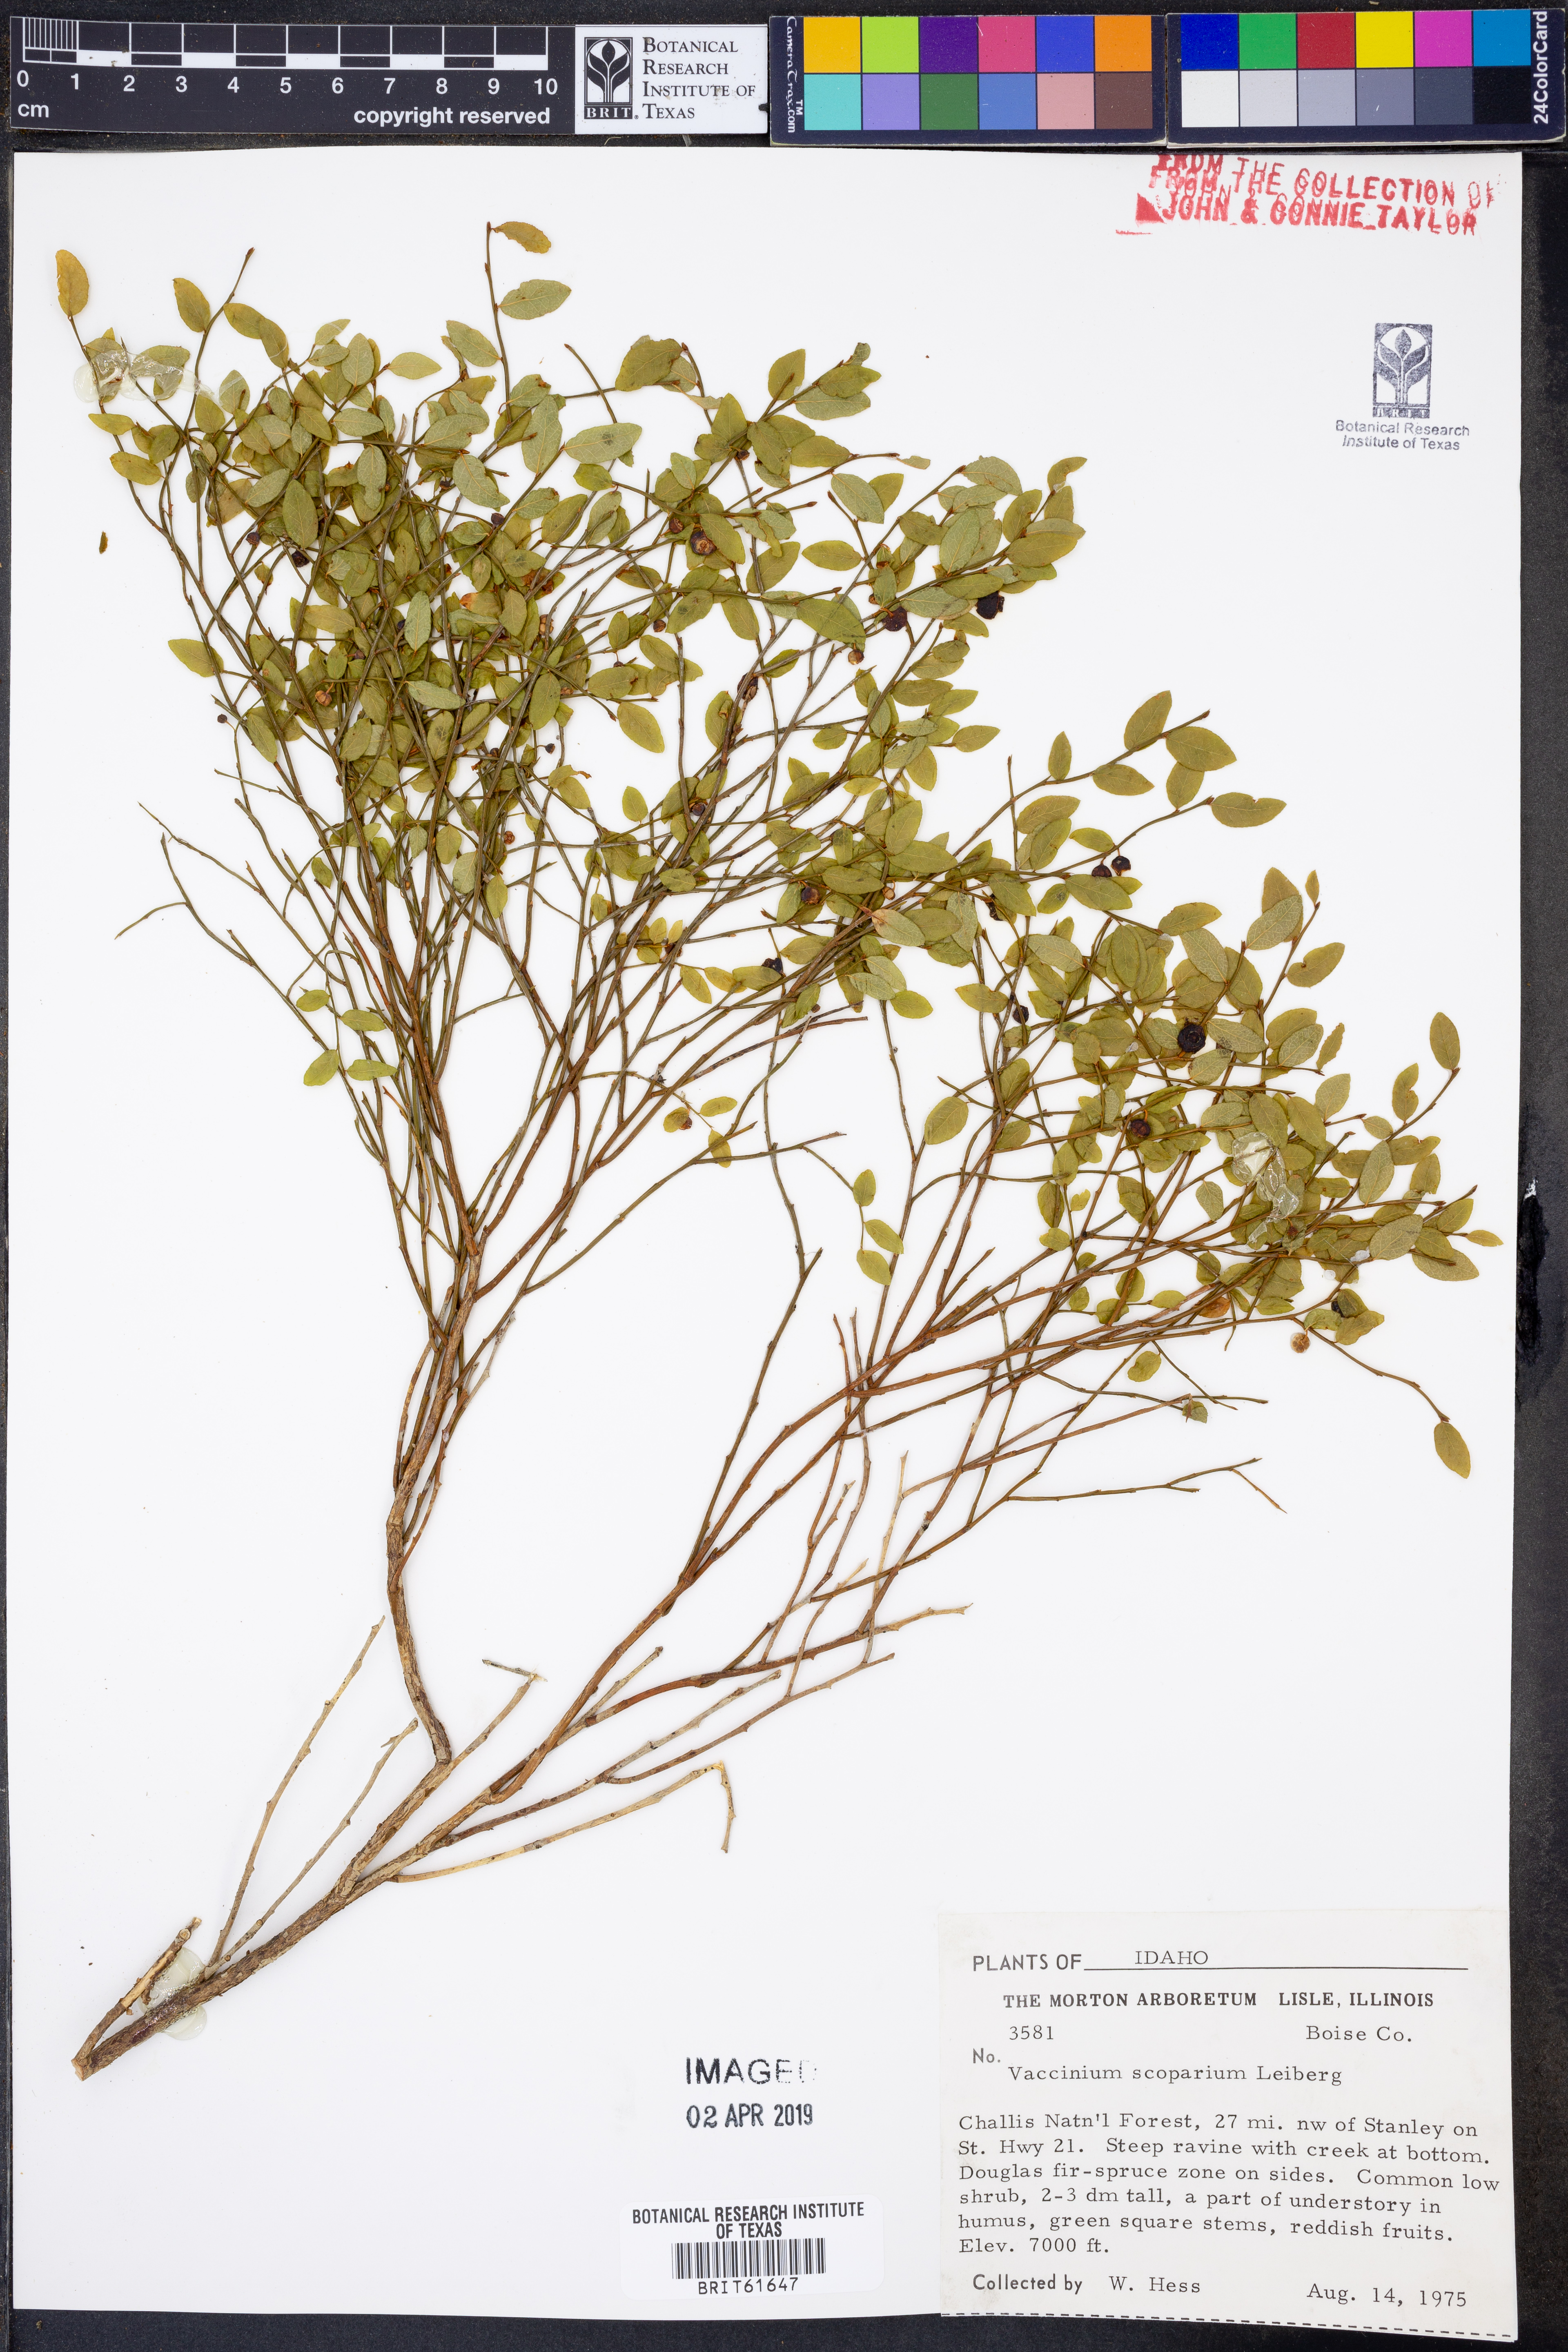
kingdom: Plantae
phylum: Tracheophyta
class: Magnoliopsida
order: Ericales
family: Ericaceae
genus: Vaccinium
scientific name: Vaccinium scoparium
